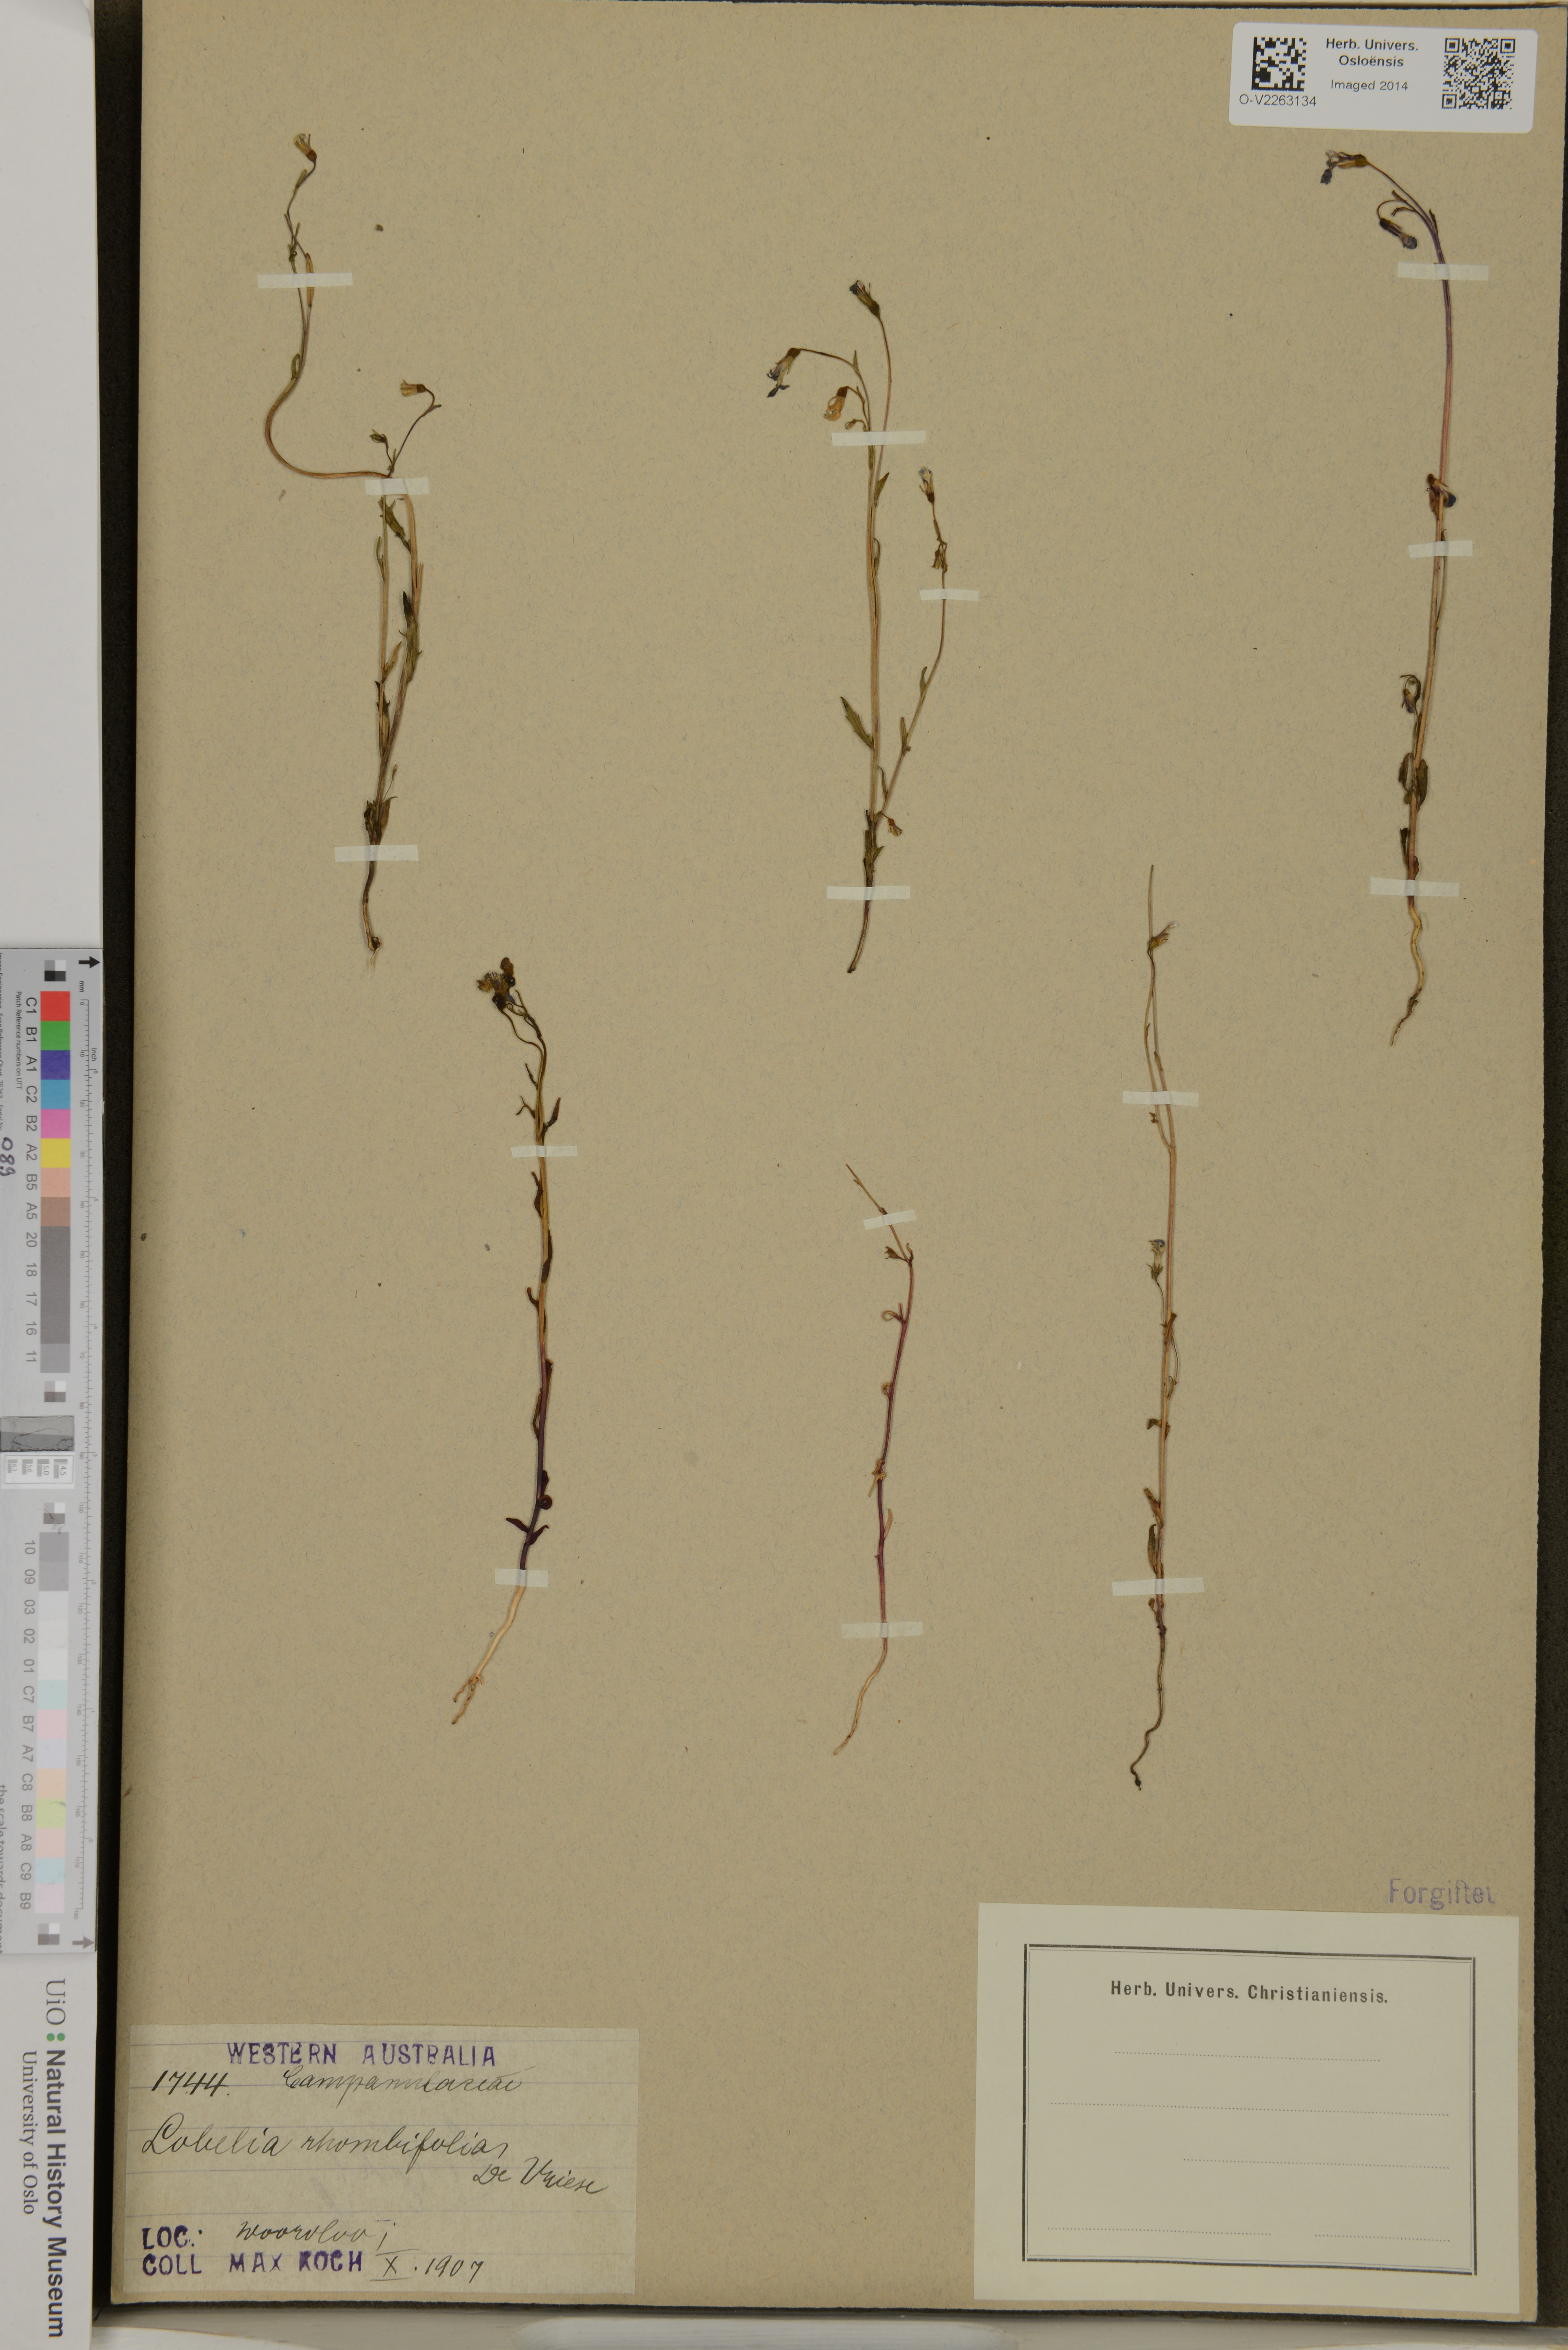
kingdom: Plantae
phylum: Tracheophyta
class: Magnoliopsida
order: Asterales
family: Campanulaceae
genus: Lobelia
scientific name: Lobelia rhombifolia
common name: Tufted lobelia
